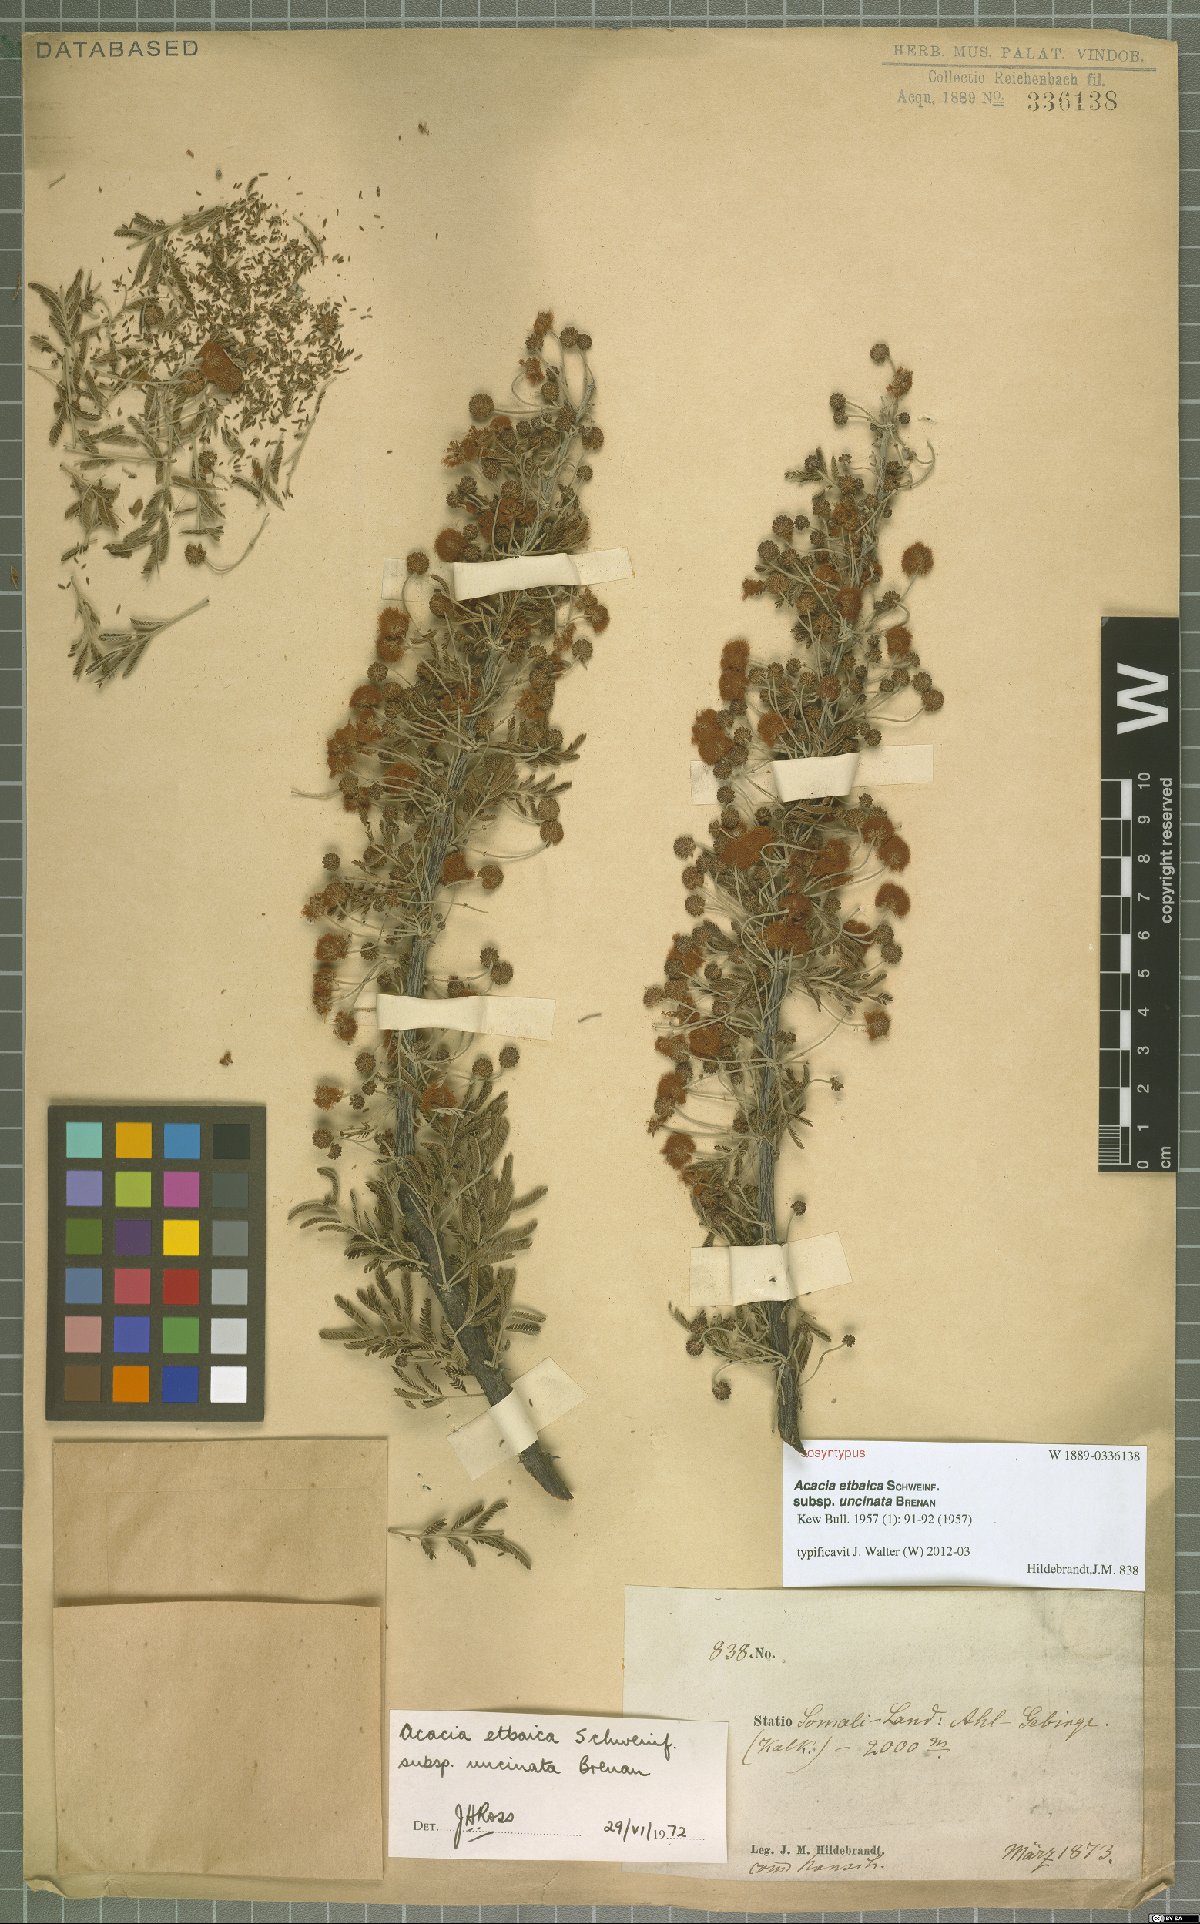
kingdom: Plantae
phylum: Tracheophyta
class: Magnoliopsida
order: Fabales
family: Fabaceae
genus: Vachellia
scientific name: Vachellia etbaica
